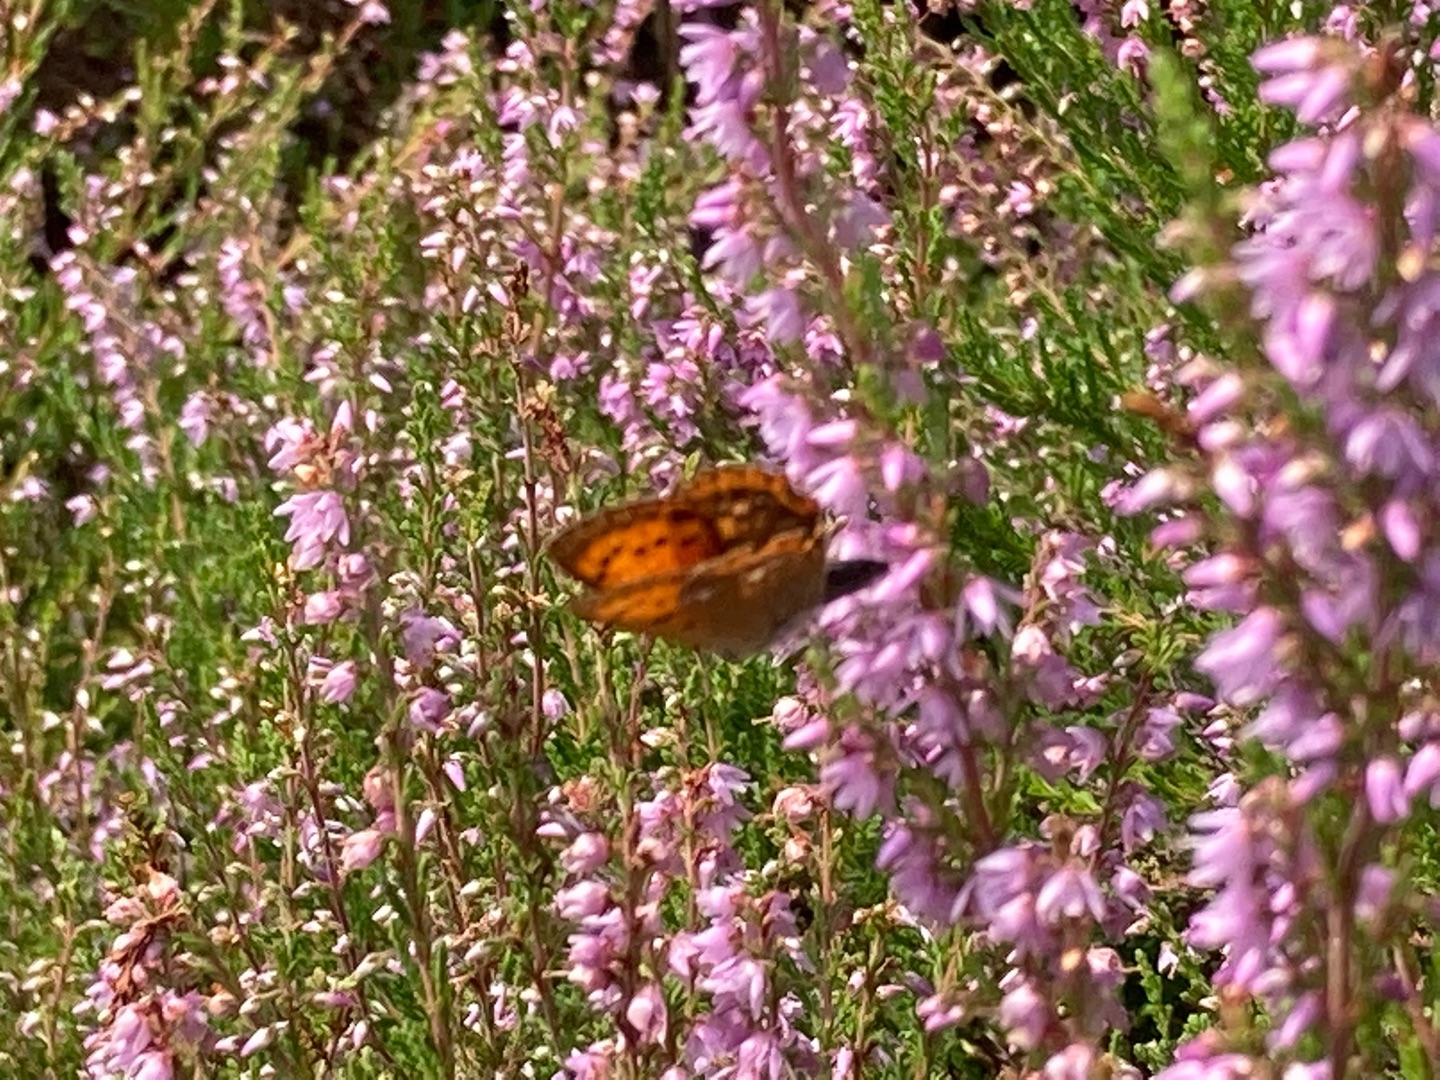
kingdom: Animalia
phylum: Arthropoda
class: Insecta
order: Lepidoptera
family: Lycaenidae
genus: Lycaena
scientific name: Lycaena virgaureae
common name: Dukatsommerfugl
